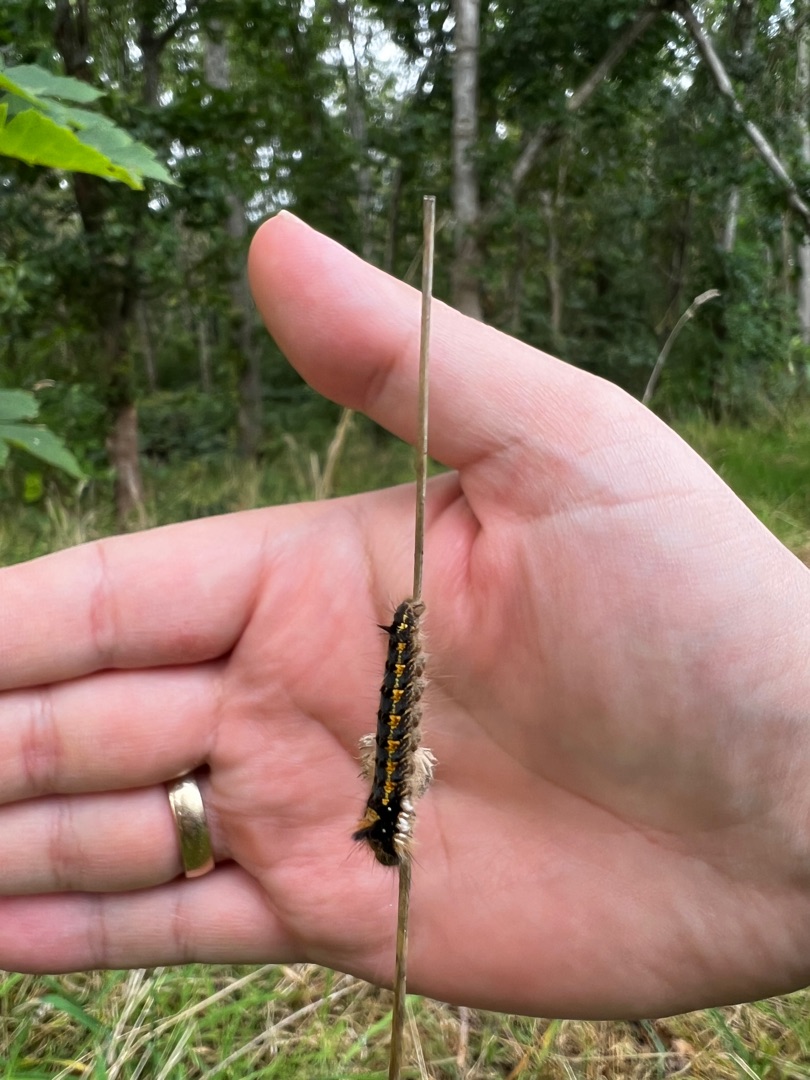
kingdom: Animalia
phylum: Arthropoda
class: Insecta
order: Lepidoptera
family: Lasiocampidae
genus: Euthrix
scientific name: Euthrix potatoria
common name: Græsspinder
